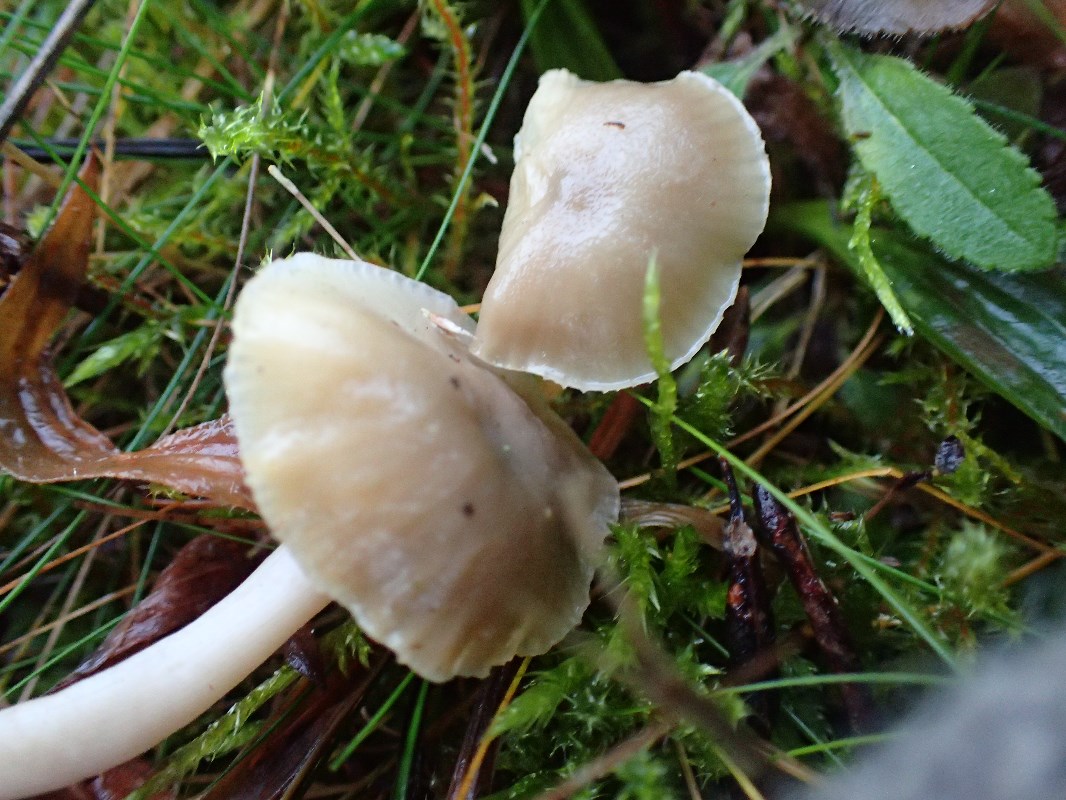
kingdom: Fungi
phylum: Basidiomycota
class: Agaricomycetes
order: Agaricales
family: Hygrophoraceae
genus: Cuphophyllus
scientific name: Cuphophyllus
